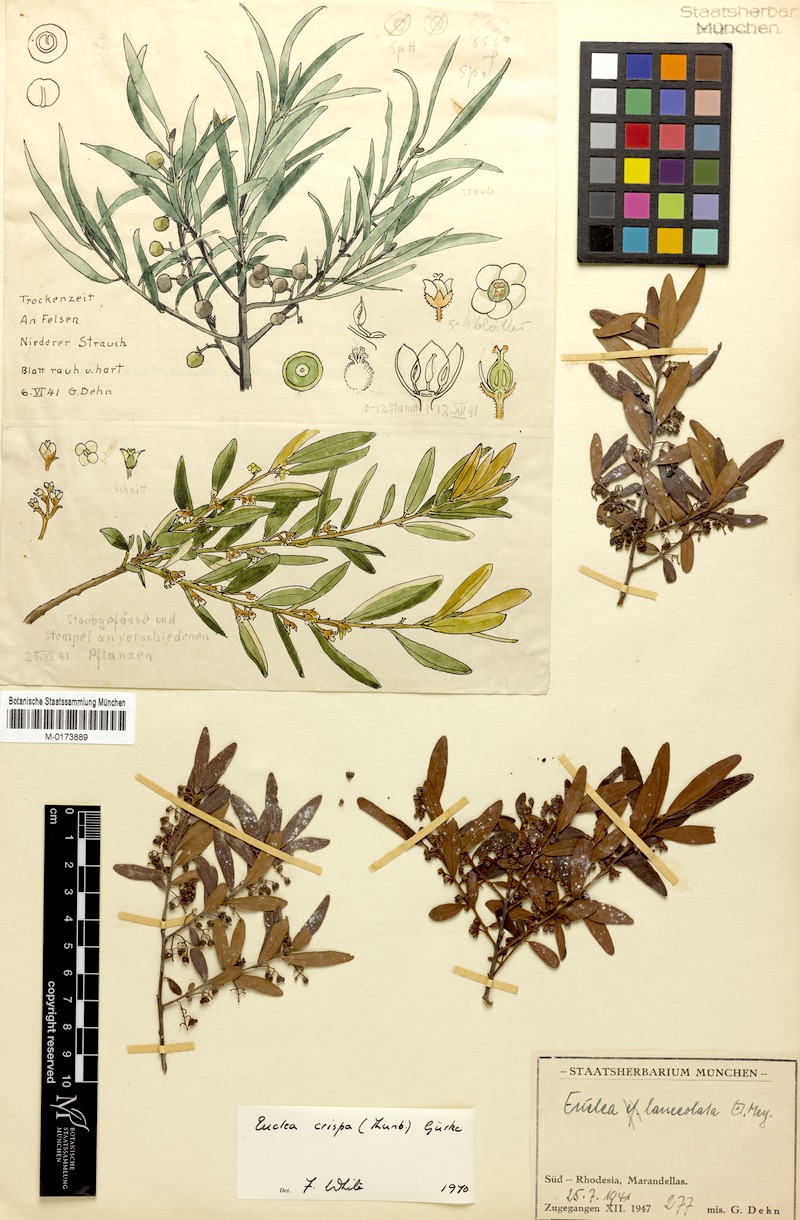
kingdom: Plantae
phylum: Tracheophyta
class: Magnoliopsida
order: Ericales
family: Ebenaceae
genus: Euclea
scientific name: Euclea crispa
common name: Blue guarri
